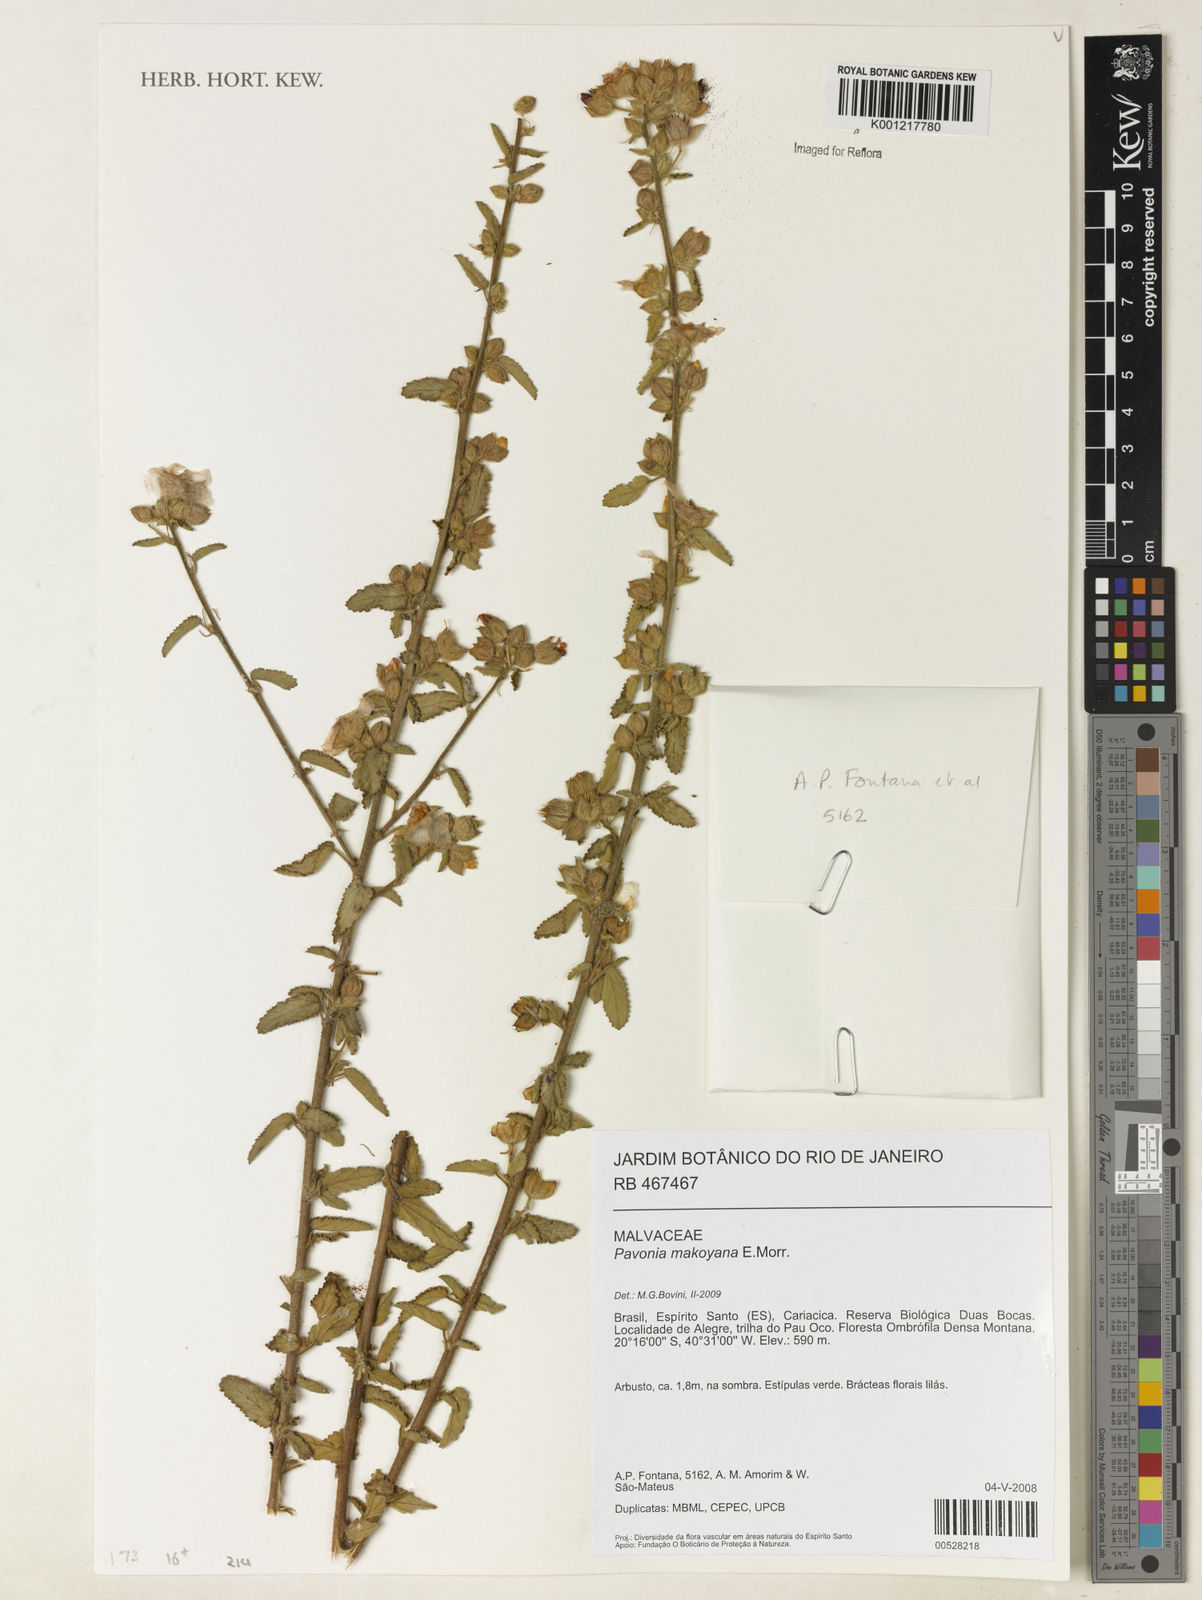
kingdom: Plantae
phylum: Tracheophyta
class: Magnoliopsida
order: Malvales
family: Malvaceae
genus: Pavonia
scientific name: Pavonia makoyana
